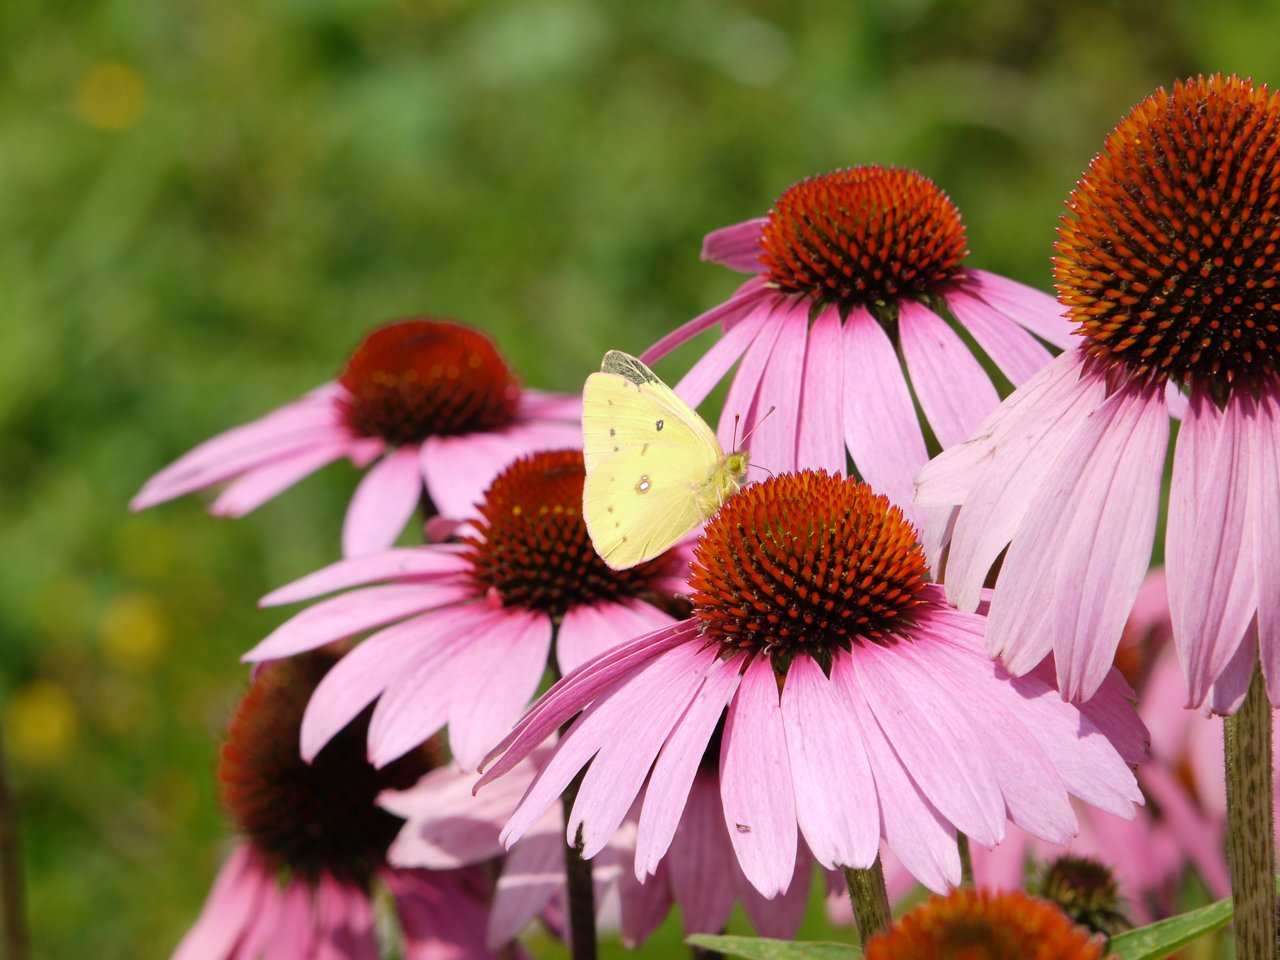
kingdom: Animalia
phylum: Arthropoda
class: Insecta
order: Lepidoptera
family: Pieridae
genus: Colias
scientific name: Colias philodice
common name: Clouded Sulphur
